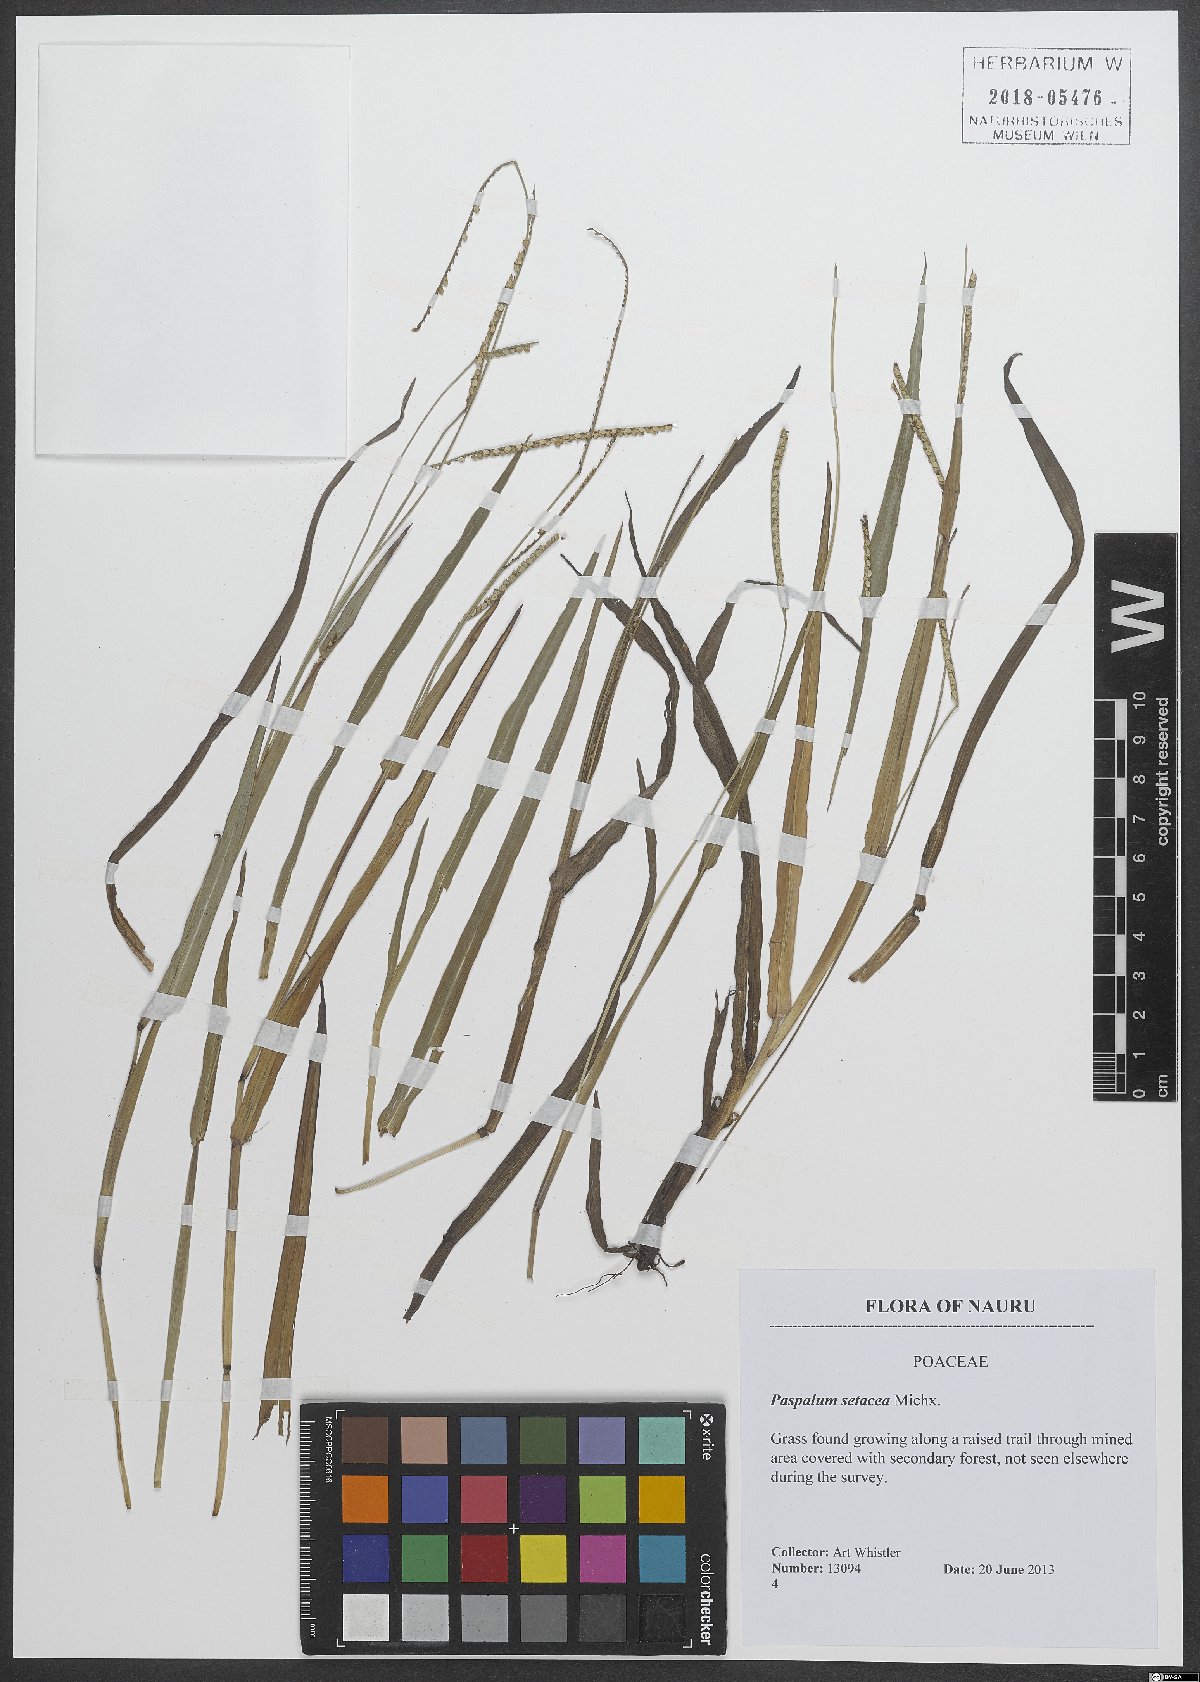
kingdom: Plantae
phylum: Tracheophyta
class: Liliopsida
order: Poales
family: Poaceae
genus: Paspalum
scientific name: Paspalum setaceum
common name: Slender paspalum
